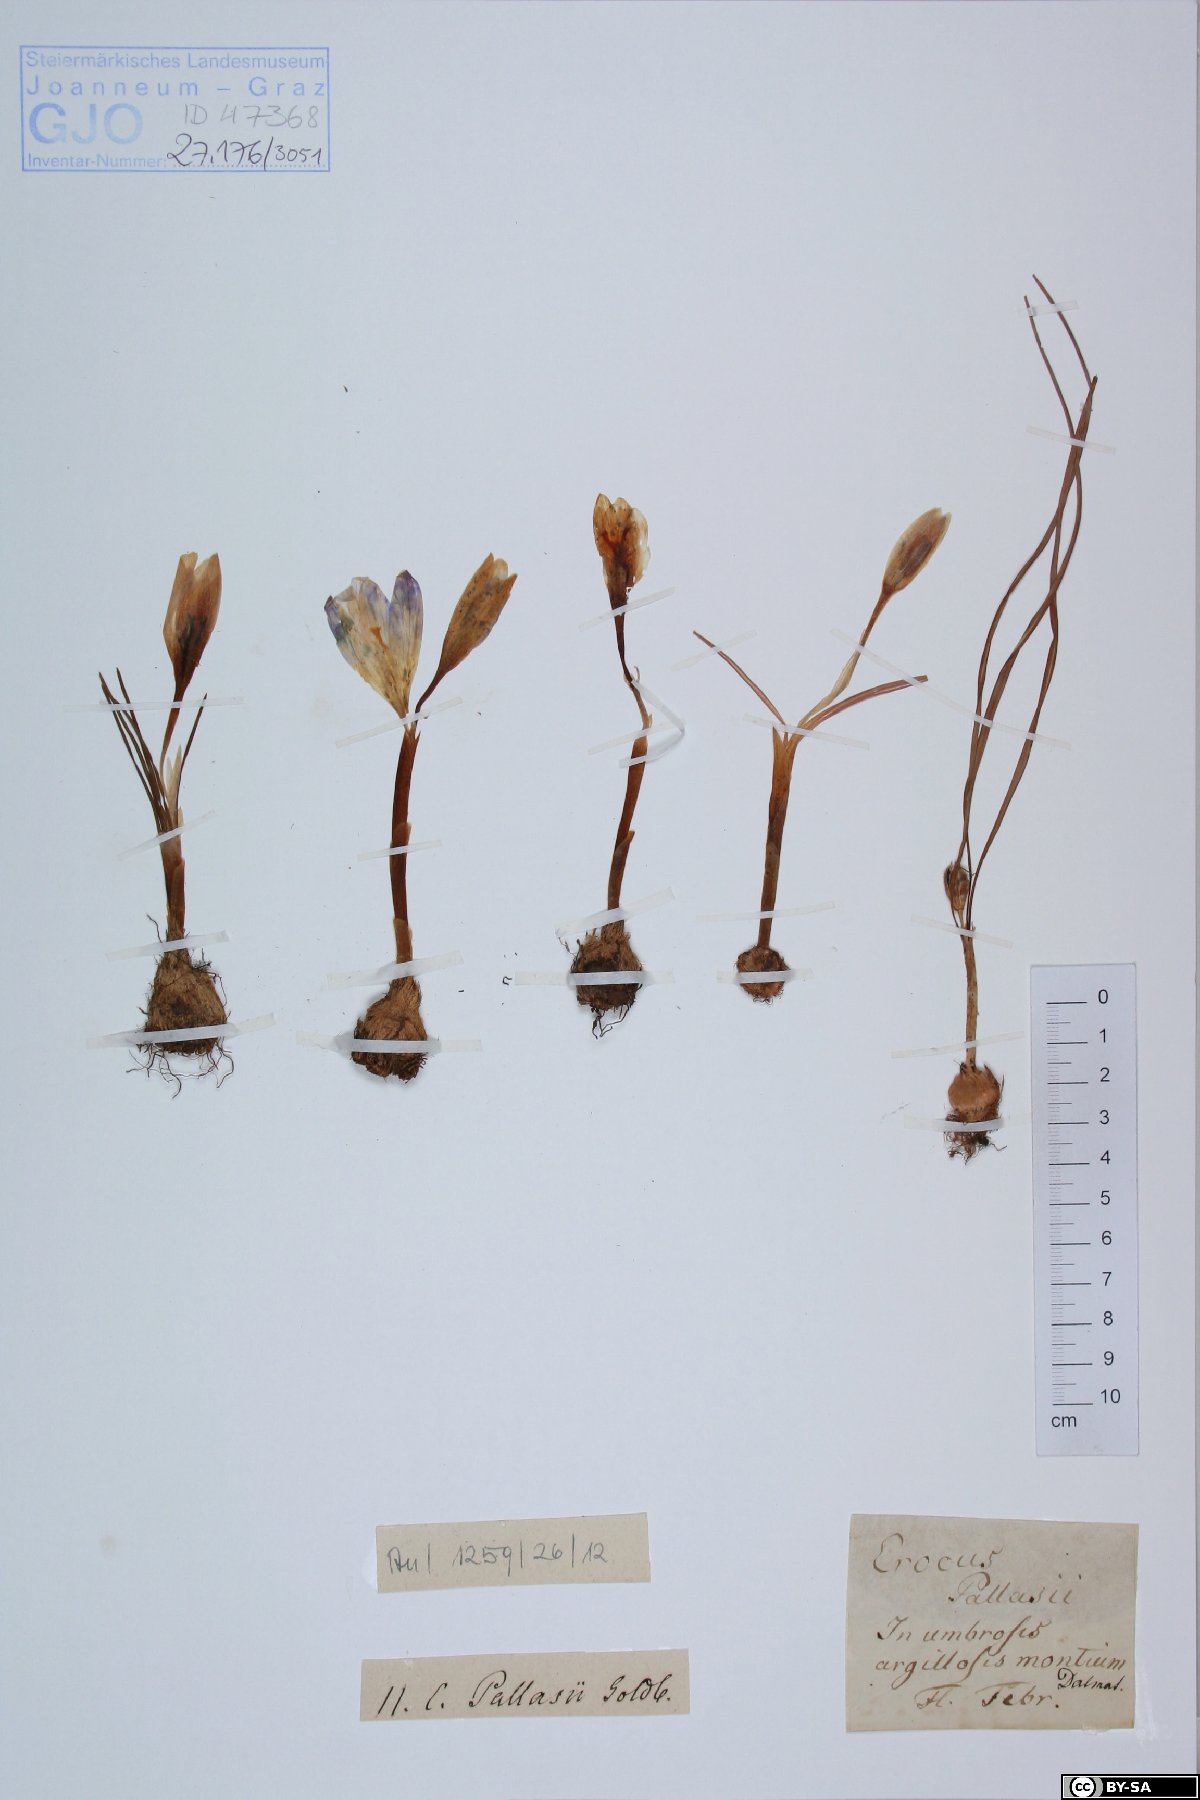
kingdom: Plantae
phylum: Tracheophyta
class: Liliopsida
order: Asparagales
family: Iridaceae
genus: Crocus
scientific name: Crocus pallasii
